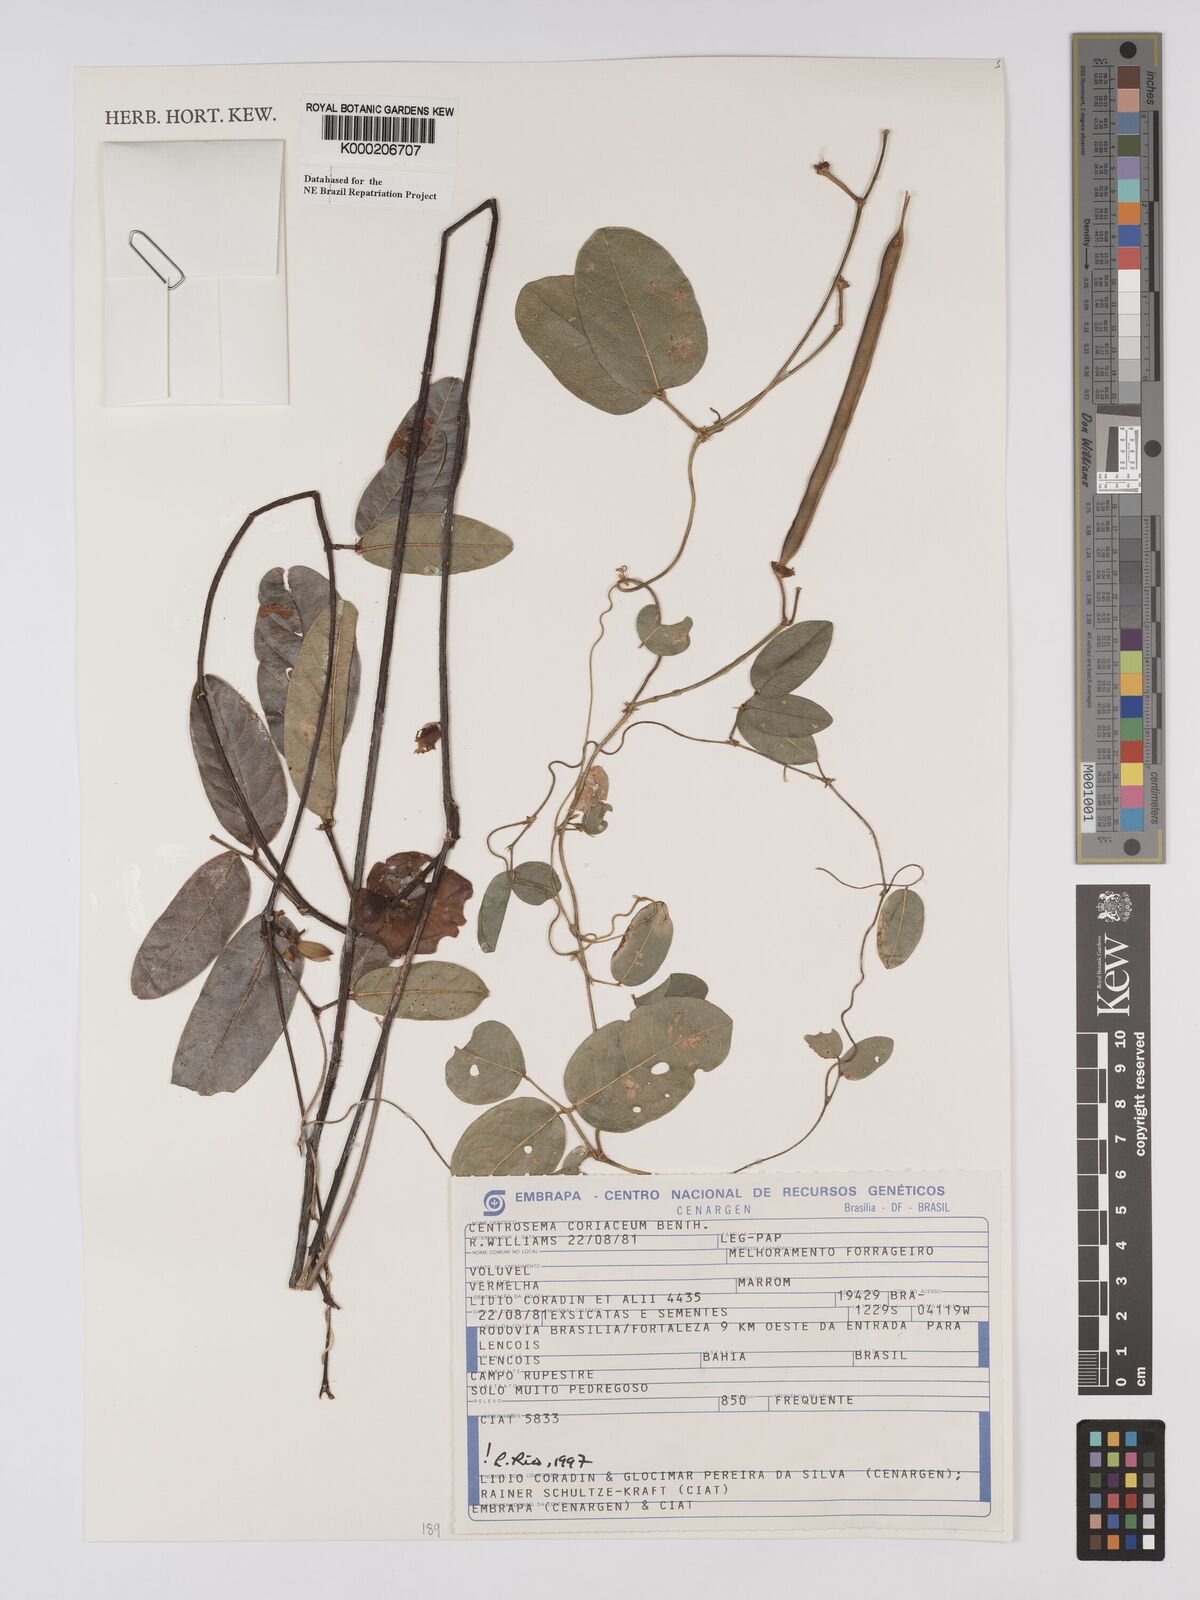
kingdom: Plantae
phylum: Tracheophyta
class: Magnoliopsida
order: Fabales
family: Fabaceae
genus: Centrosema
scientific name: Centrosema coriaceum
